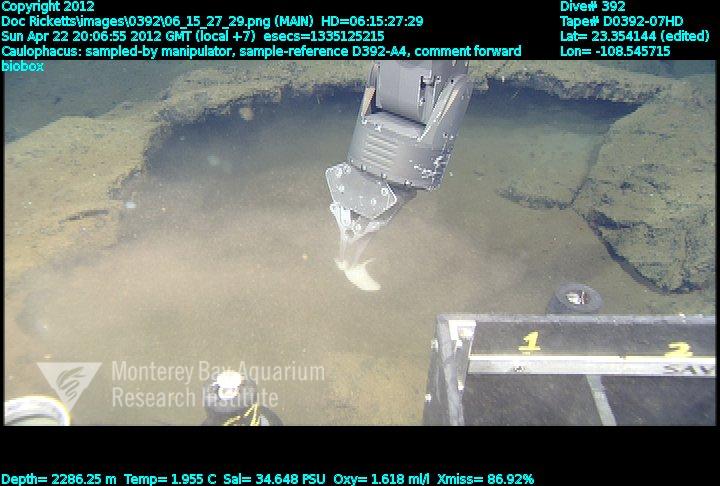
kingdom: Animalia
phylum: Porifera
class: Hexactinellida
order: Lyssacinosida
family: Rossellidae
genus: Caulophacus
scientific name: Caulophacus
